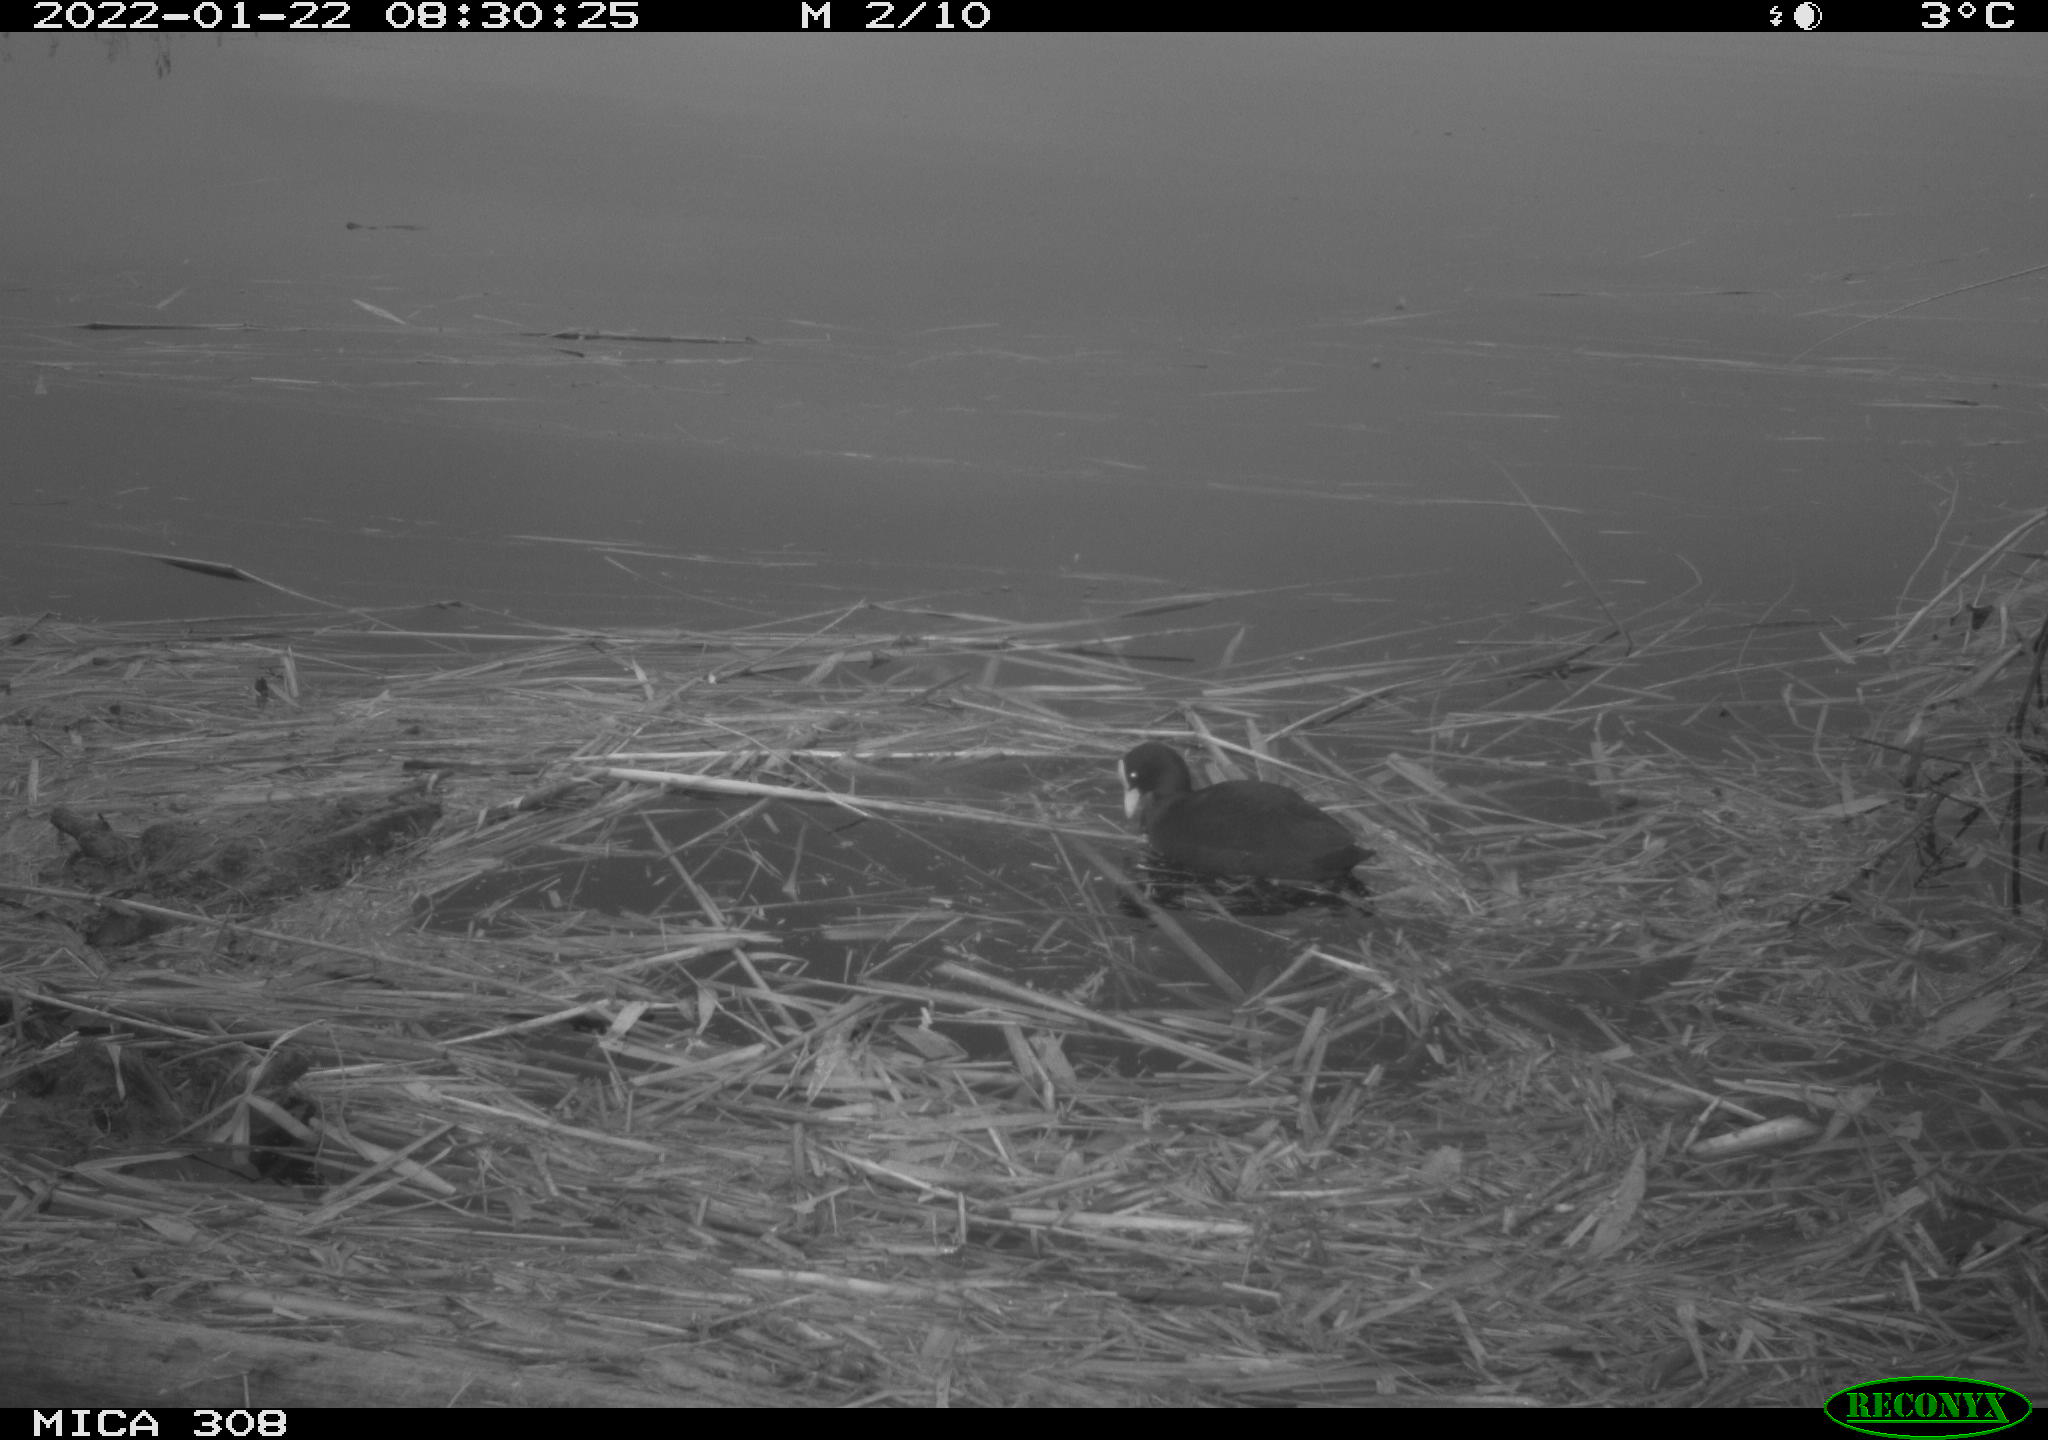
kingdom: Animalia
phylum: Chordata
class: Aves
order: Gruiformes
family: Rallidae
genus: Fulica
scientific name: Fulica atra
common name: Eurasian coot
